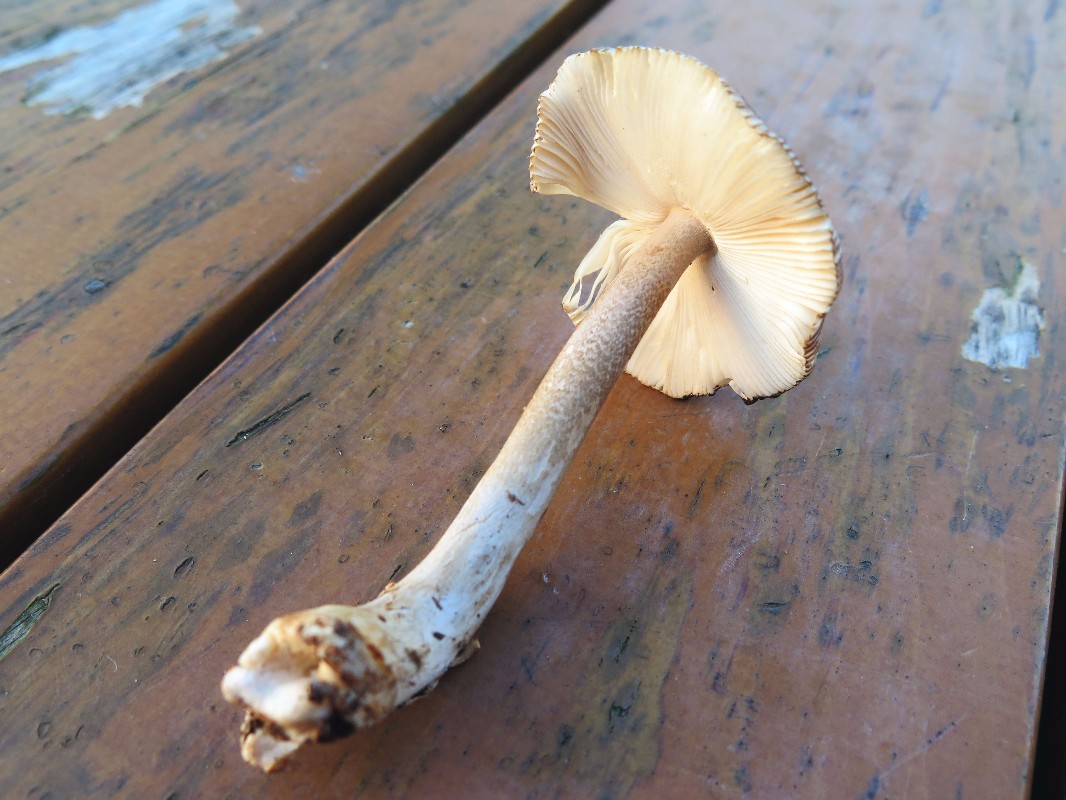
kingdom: Fungi
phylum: Basidiomycota
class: Agaricomycetes
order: Agaricales
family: Amanitaceae
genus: Amanita
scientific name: Amanita battarrae
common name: zoneret kam-fluesvamp
